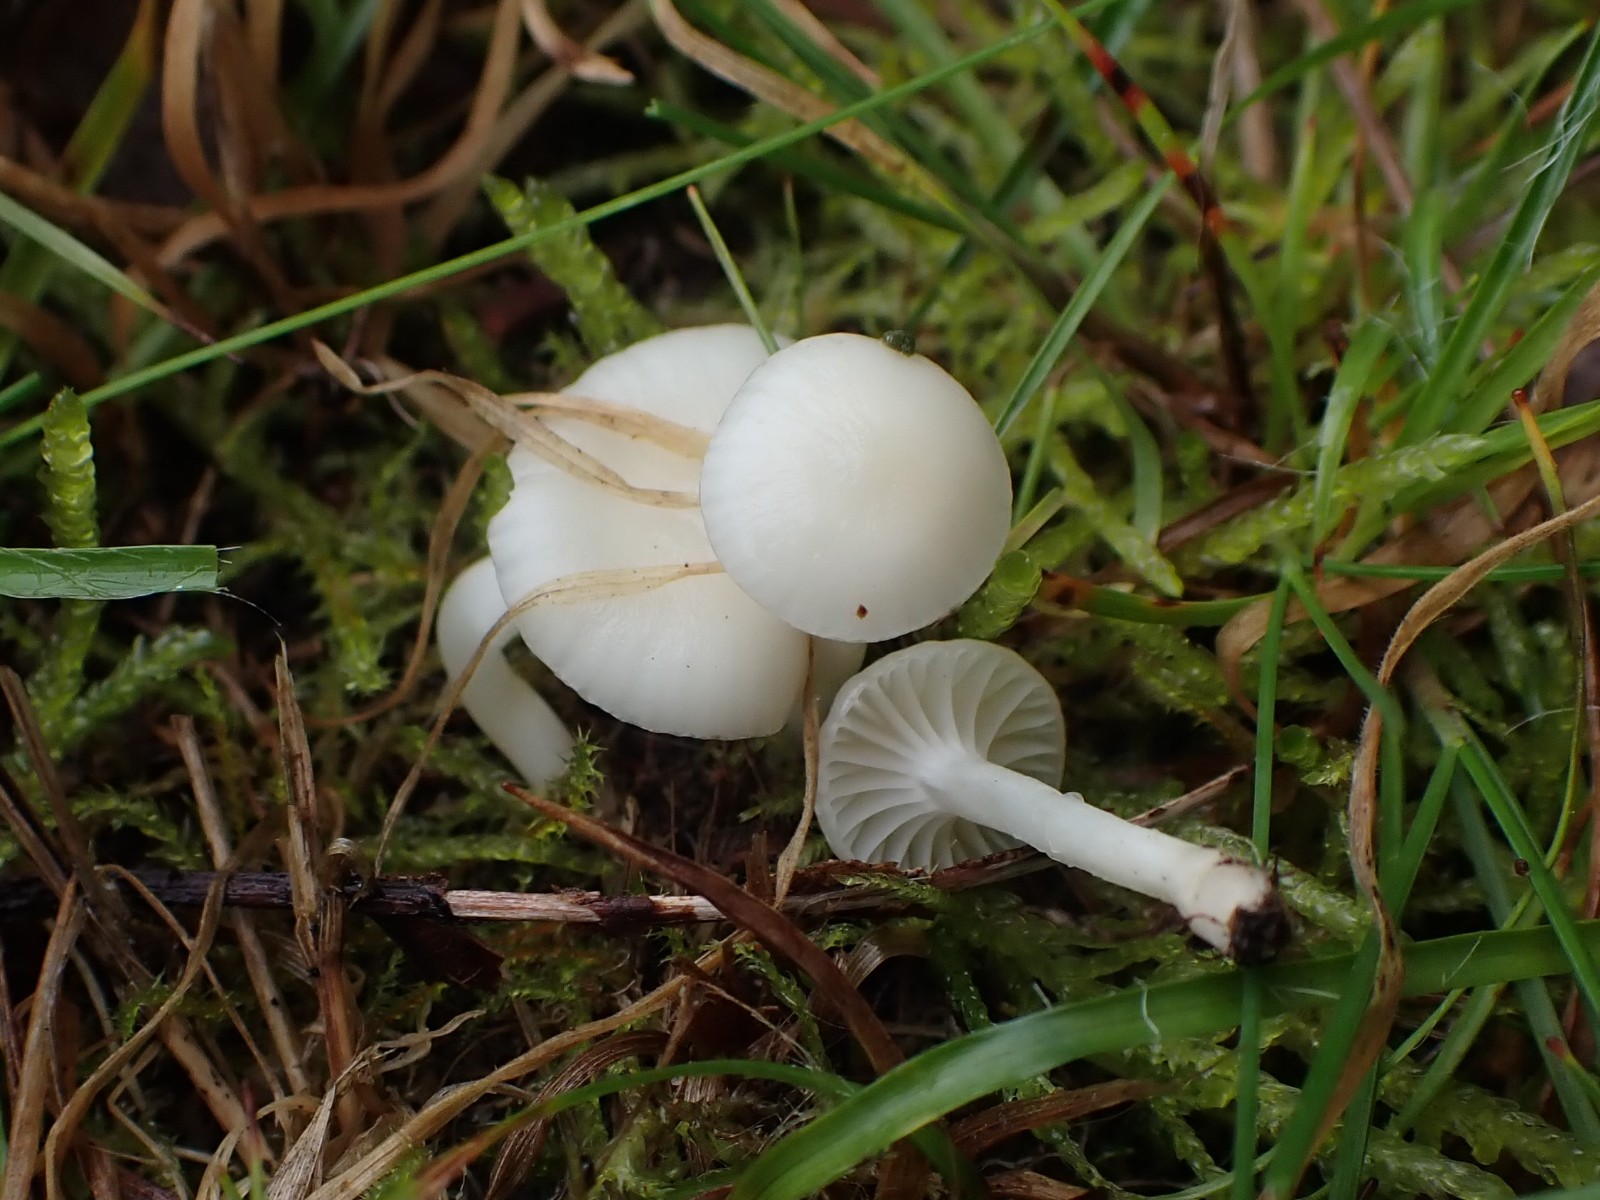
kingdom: Fungi
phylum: Basidiomycota
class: Agaricomycetes
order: Agaricales
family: Hygrophoraceae
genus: Cuphophyllus
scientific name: Cuphophyllus virgineus
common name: snehvid vokshat
